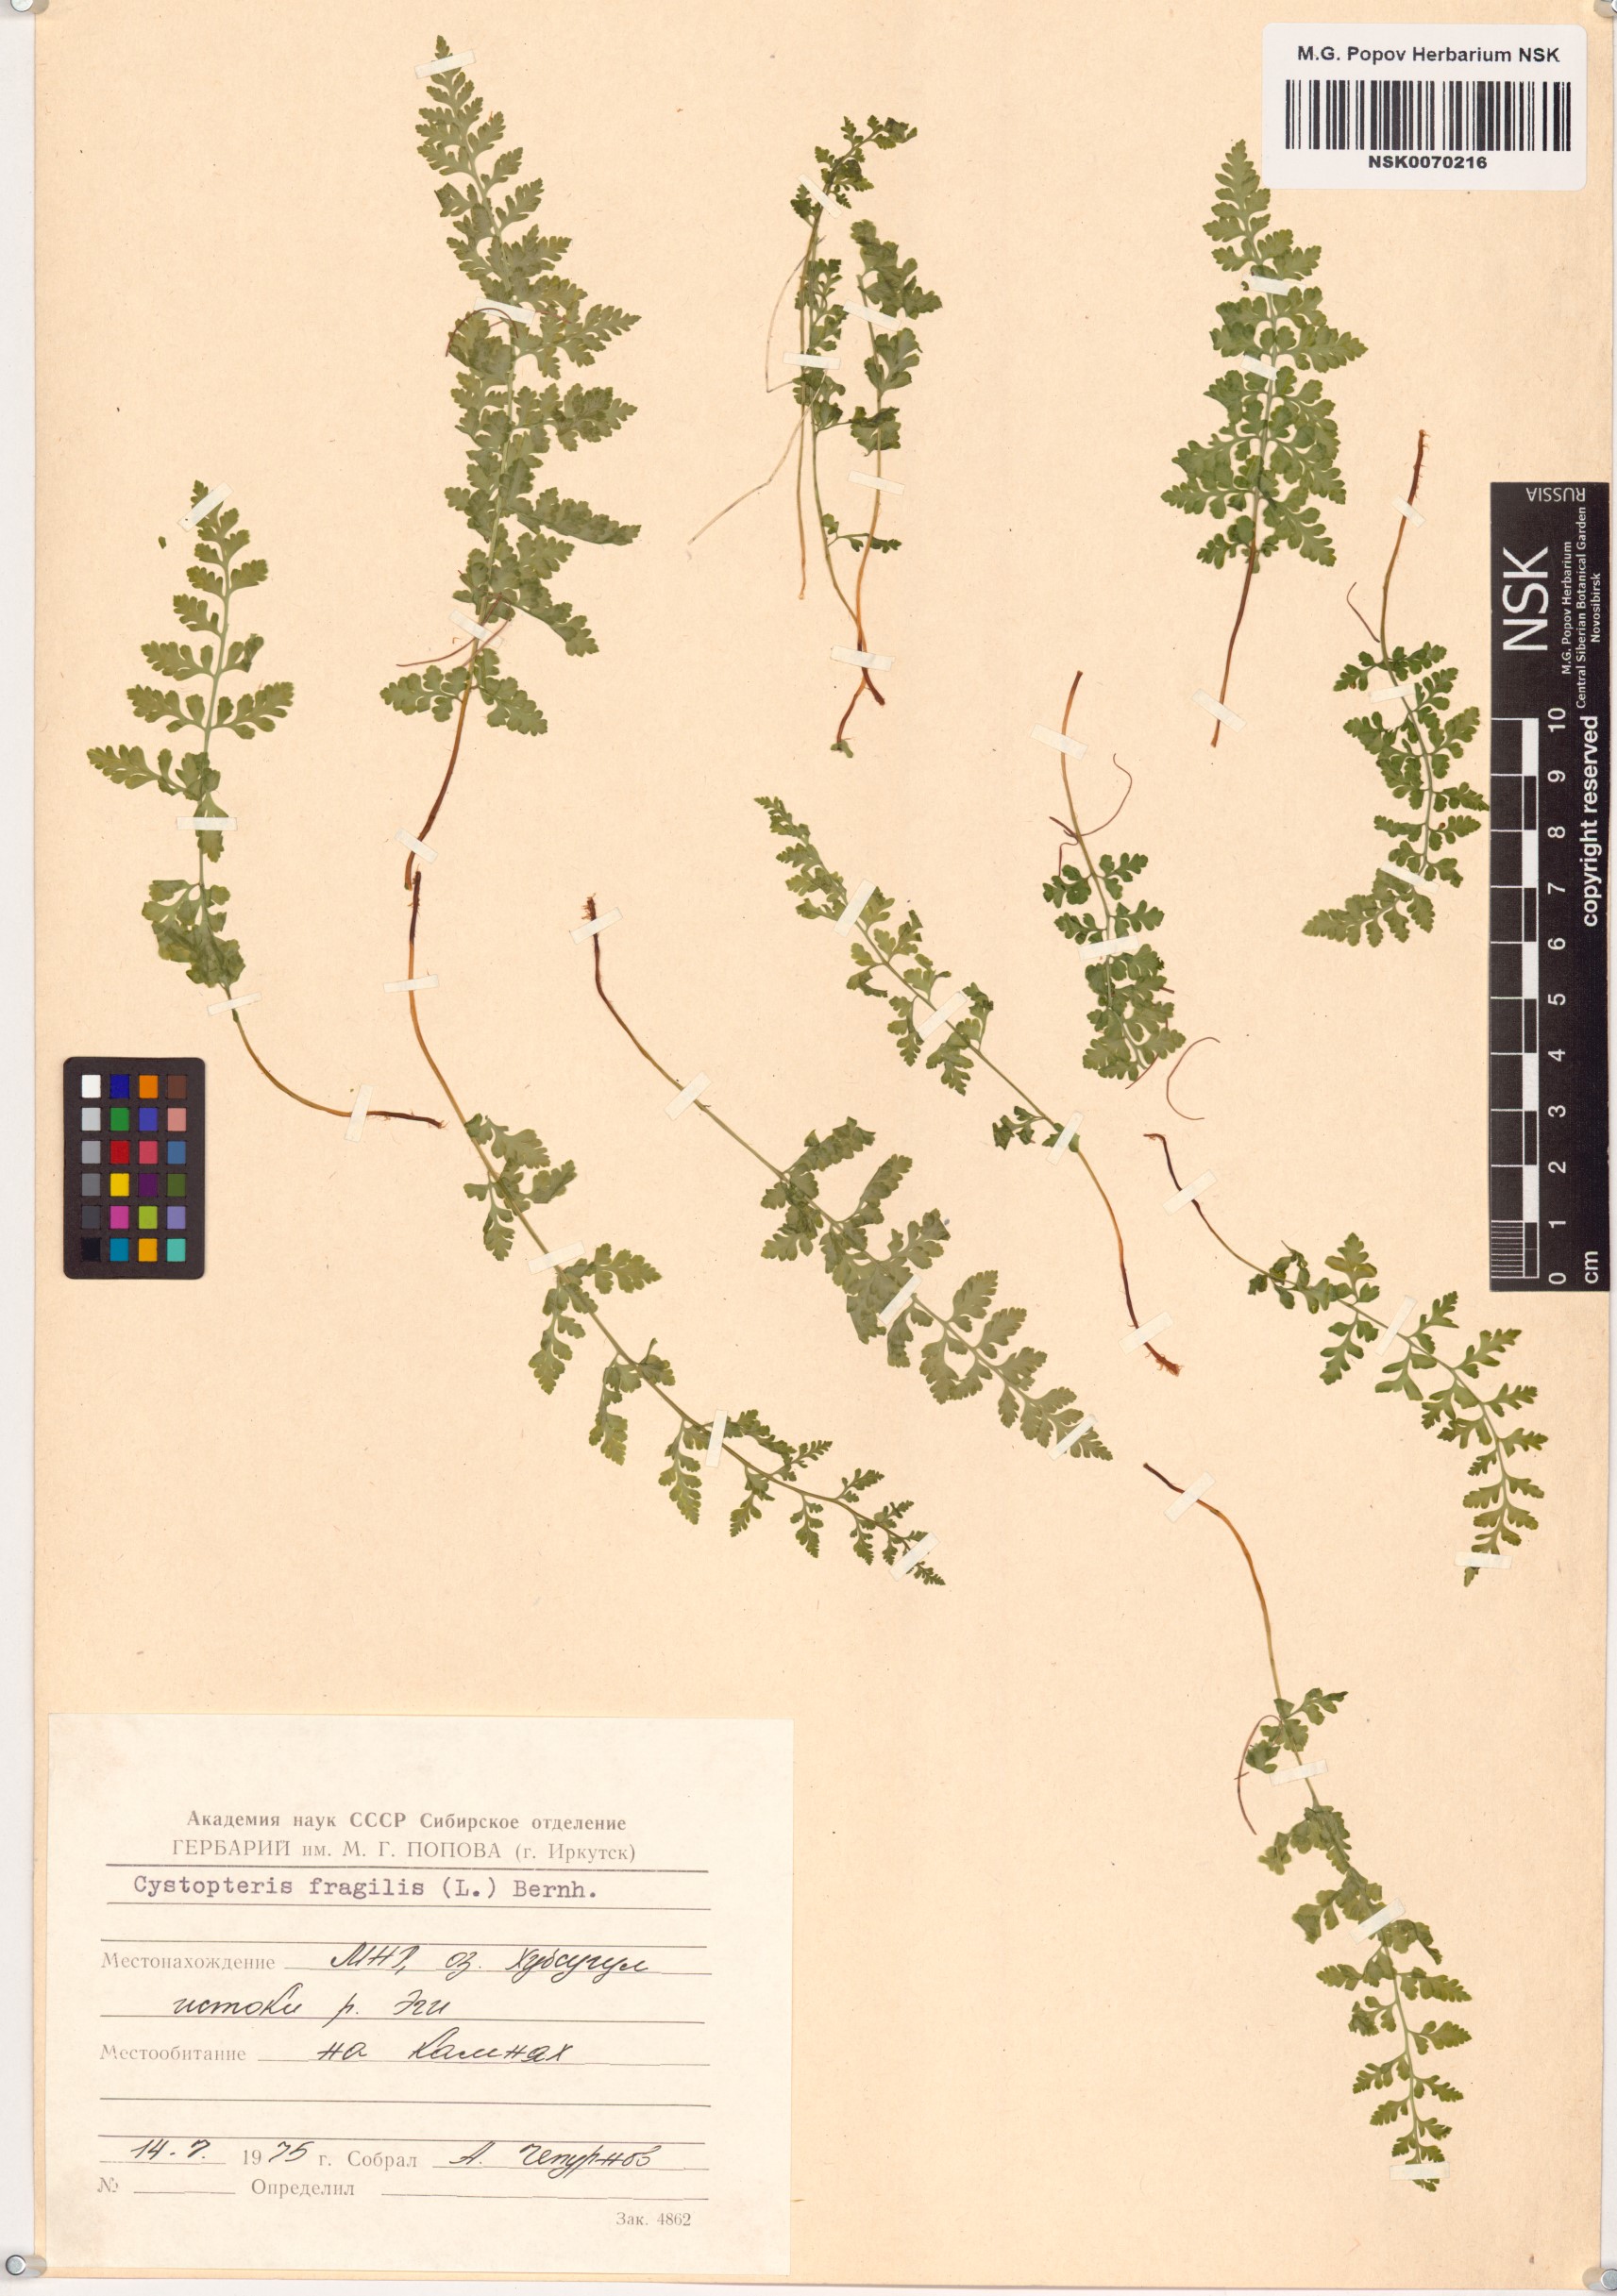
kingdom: Plantae
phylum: Tracheophyta
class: Polypodiopsida
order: Polypodiales
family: Cystopteridaceae
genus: Cystopteris
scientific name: Cystopteris fragilis
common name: Brittle bladder fern
